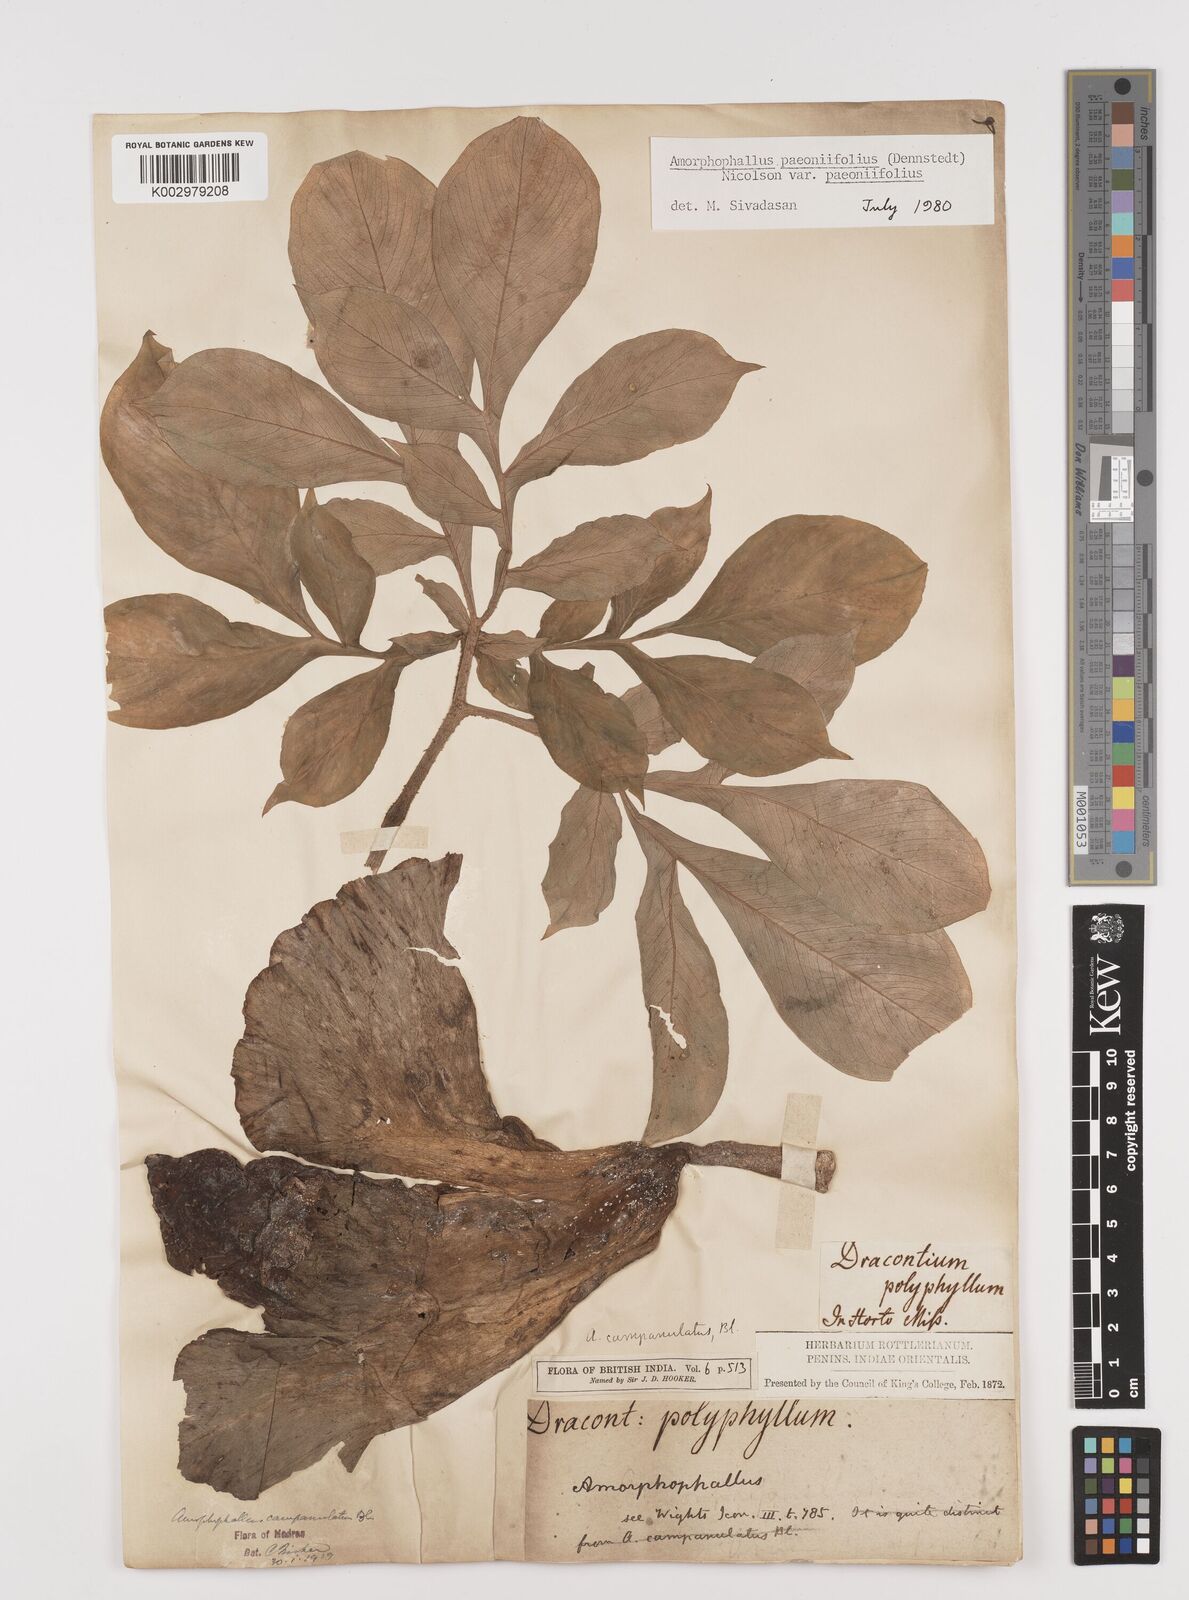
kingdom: Plantae
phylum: Tracheophyta
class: Liliopsida
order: Alismatales
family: Araceae
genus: Amorphophallus
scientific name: Amorphophallus paeoniifolius
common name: Telinga-potato
